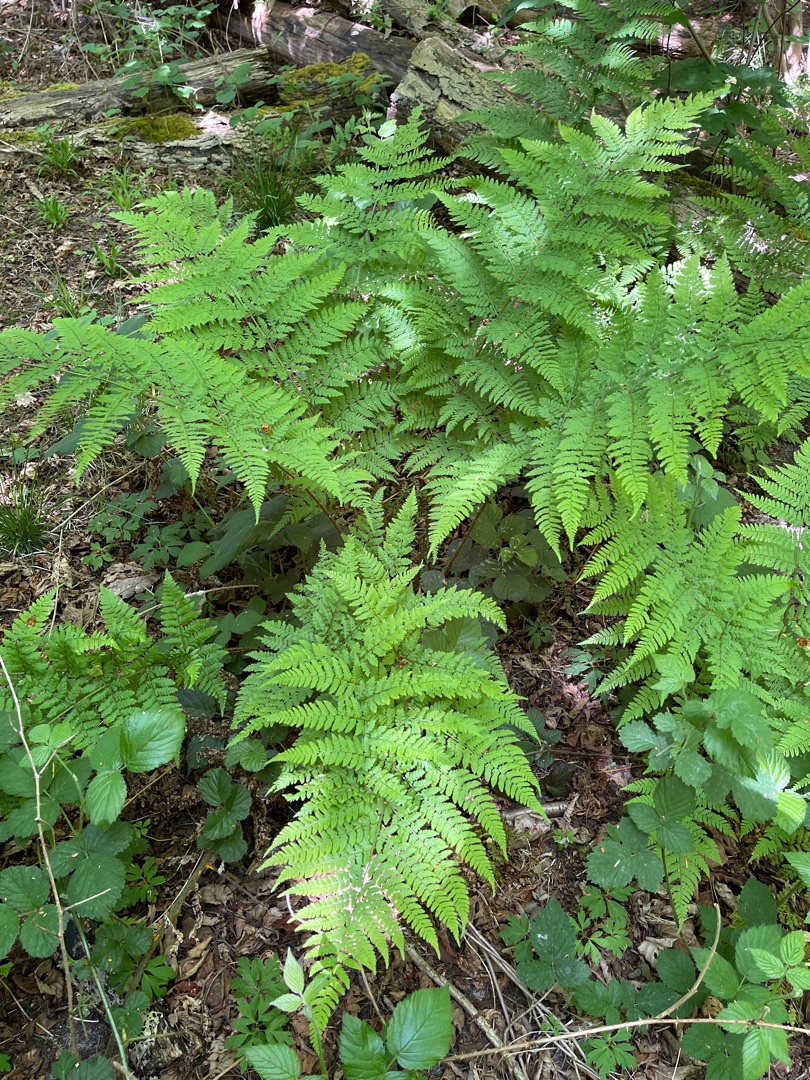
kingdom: Plantae
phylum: Tracheophyta
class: Polypodiopsida
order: Polypodiales
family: Dryopteridaceae
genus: Dryopteris
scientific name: Dryopteris dilatata
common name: Bredbladet mangeløv
